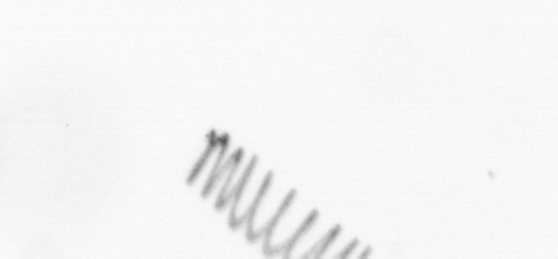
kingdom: Chromista
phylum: Ochrophyta
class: Bacillariophyceae
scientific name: Bacillariophyceae
